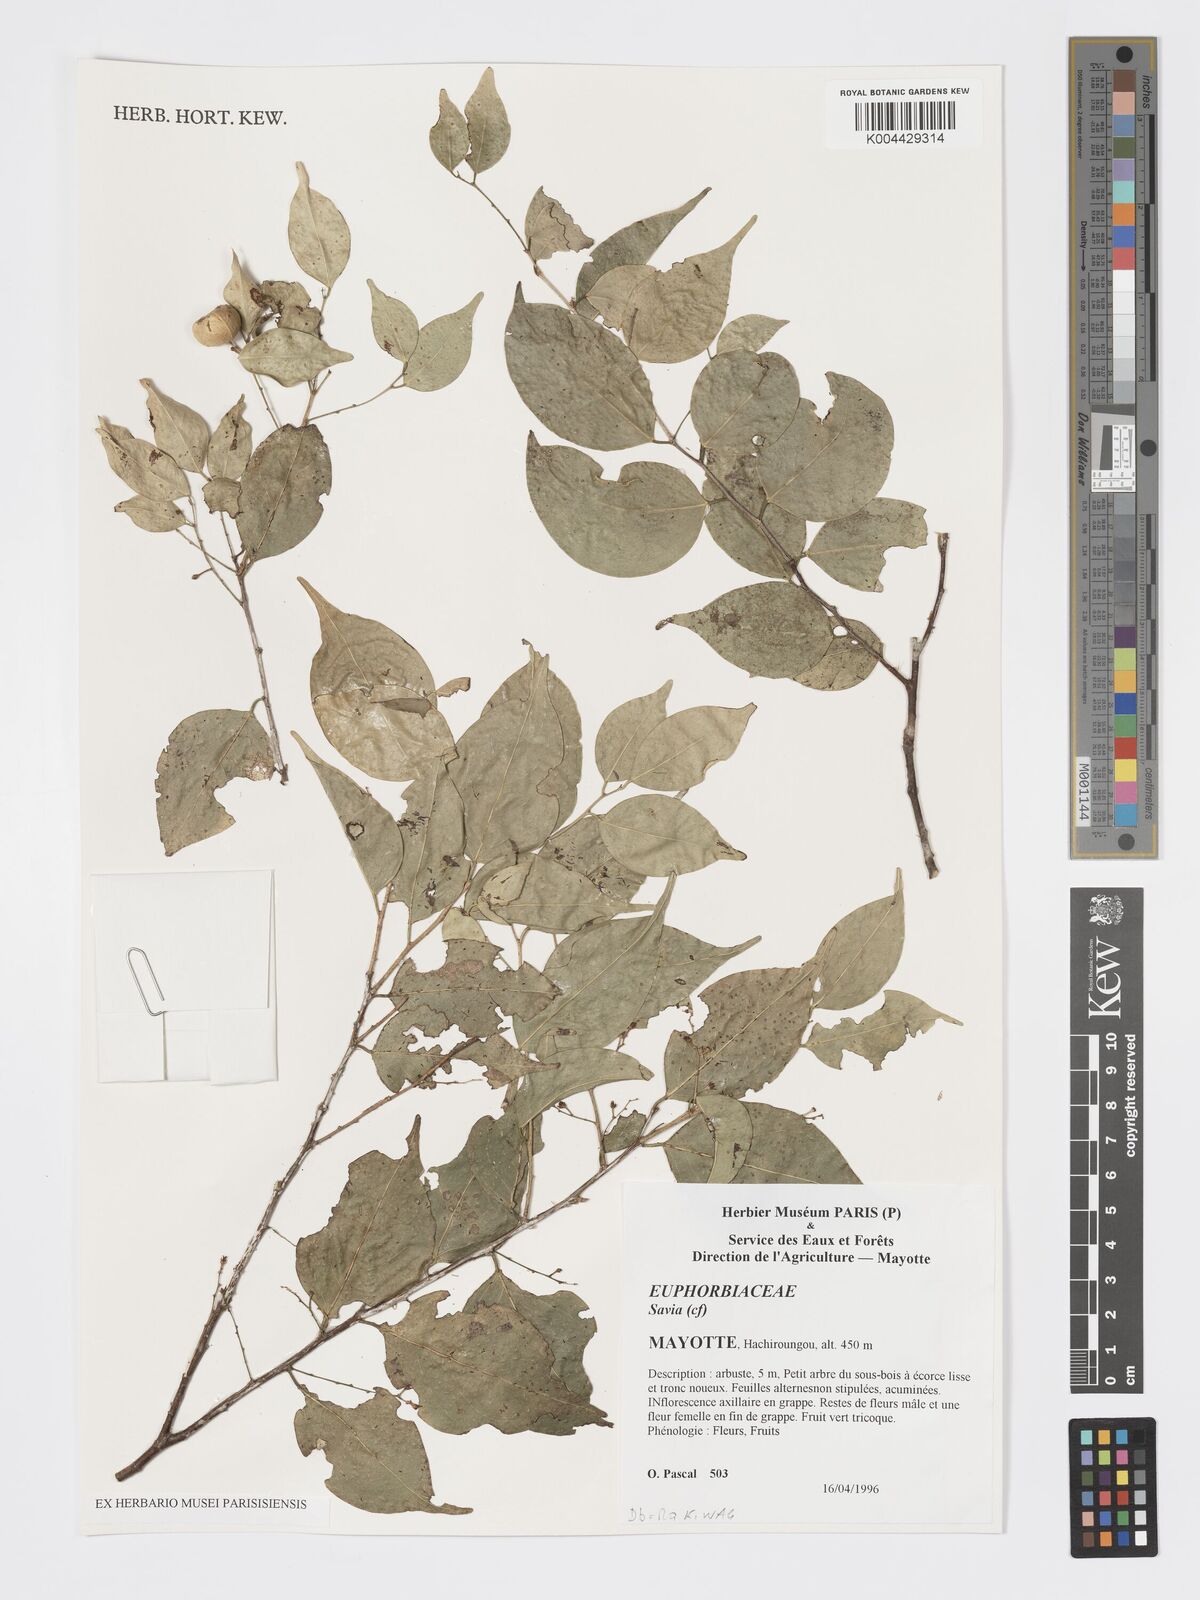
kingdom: Plantae
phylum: Tracheophyta
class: Magnoliopsida
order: Malpighiales
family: Phyllanthaceae
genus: Wielandia
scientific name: Wielandia fadenii
